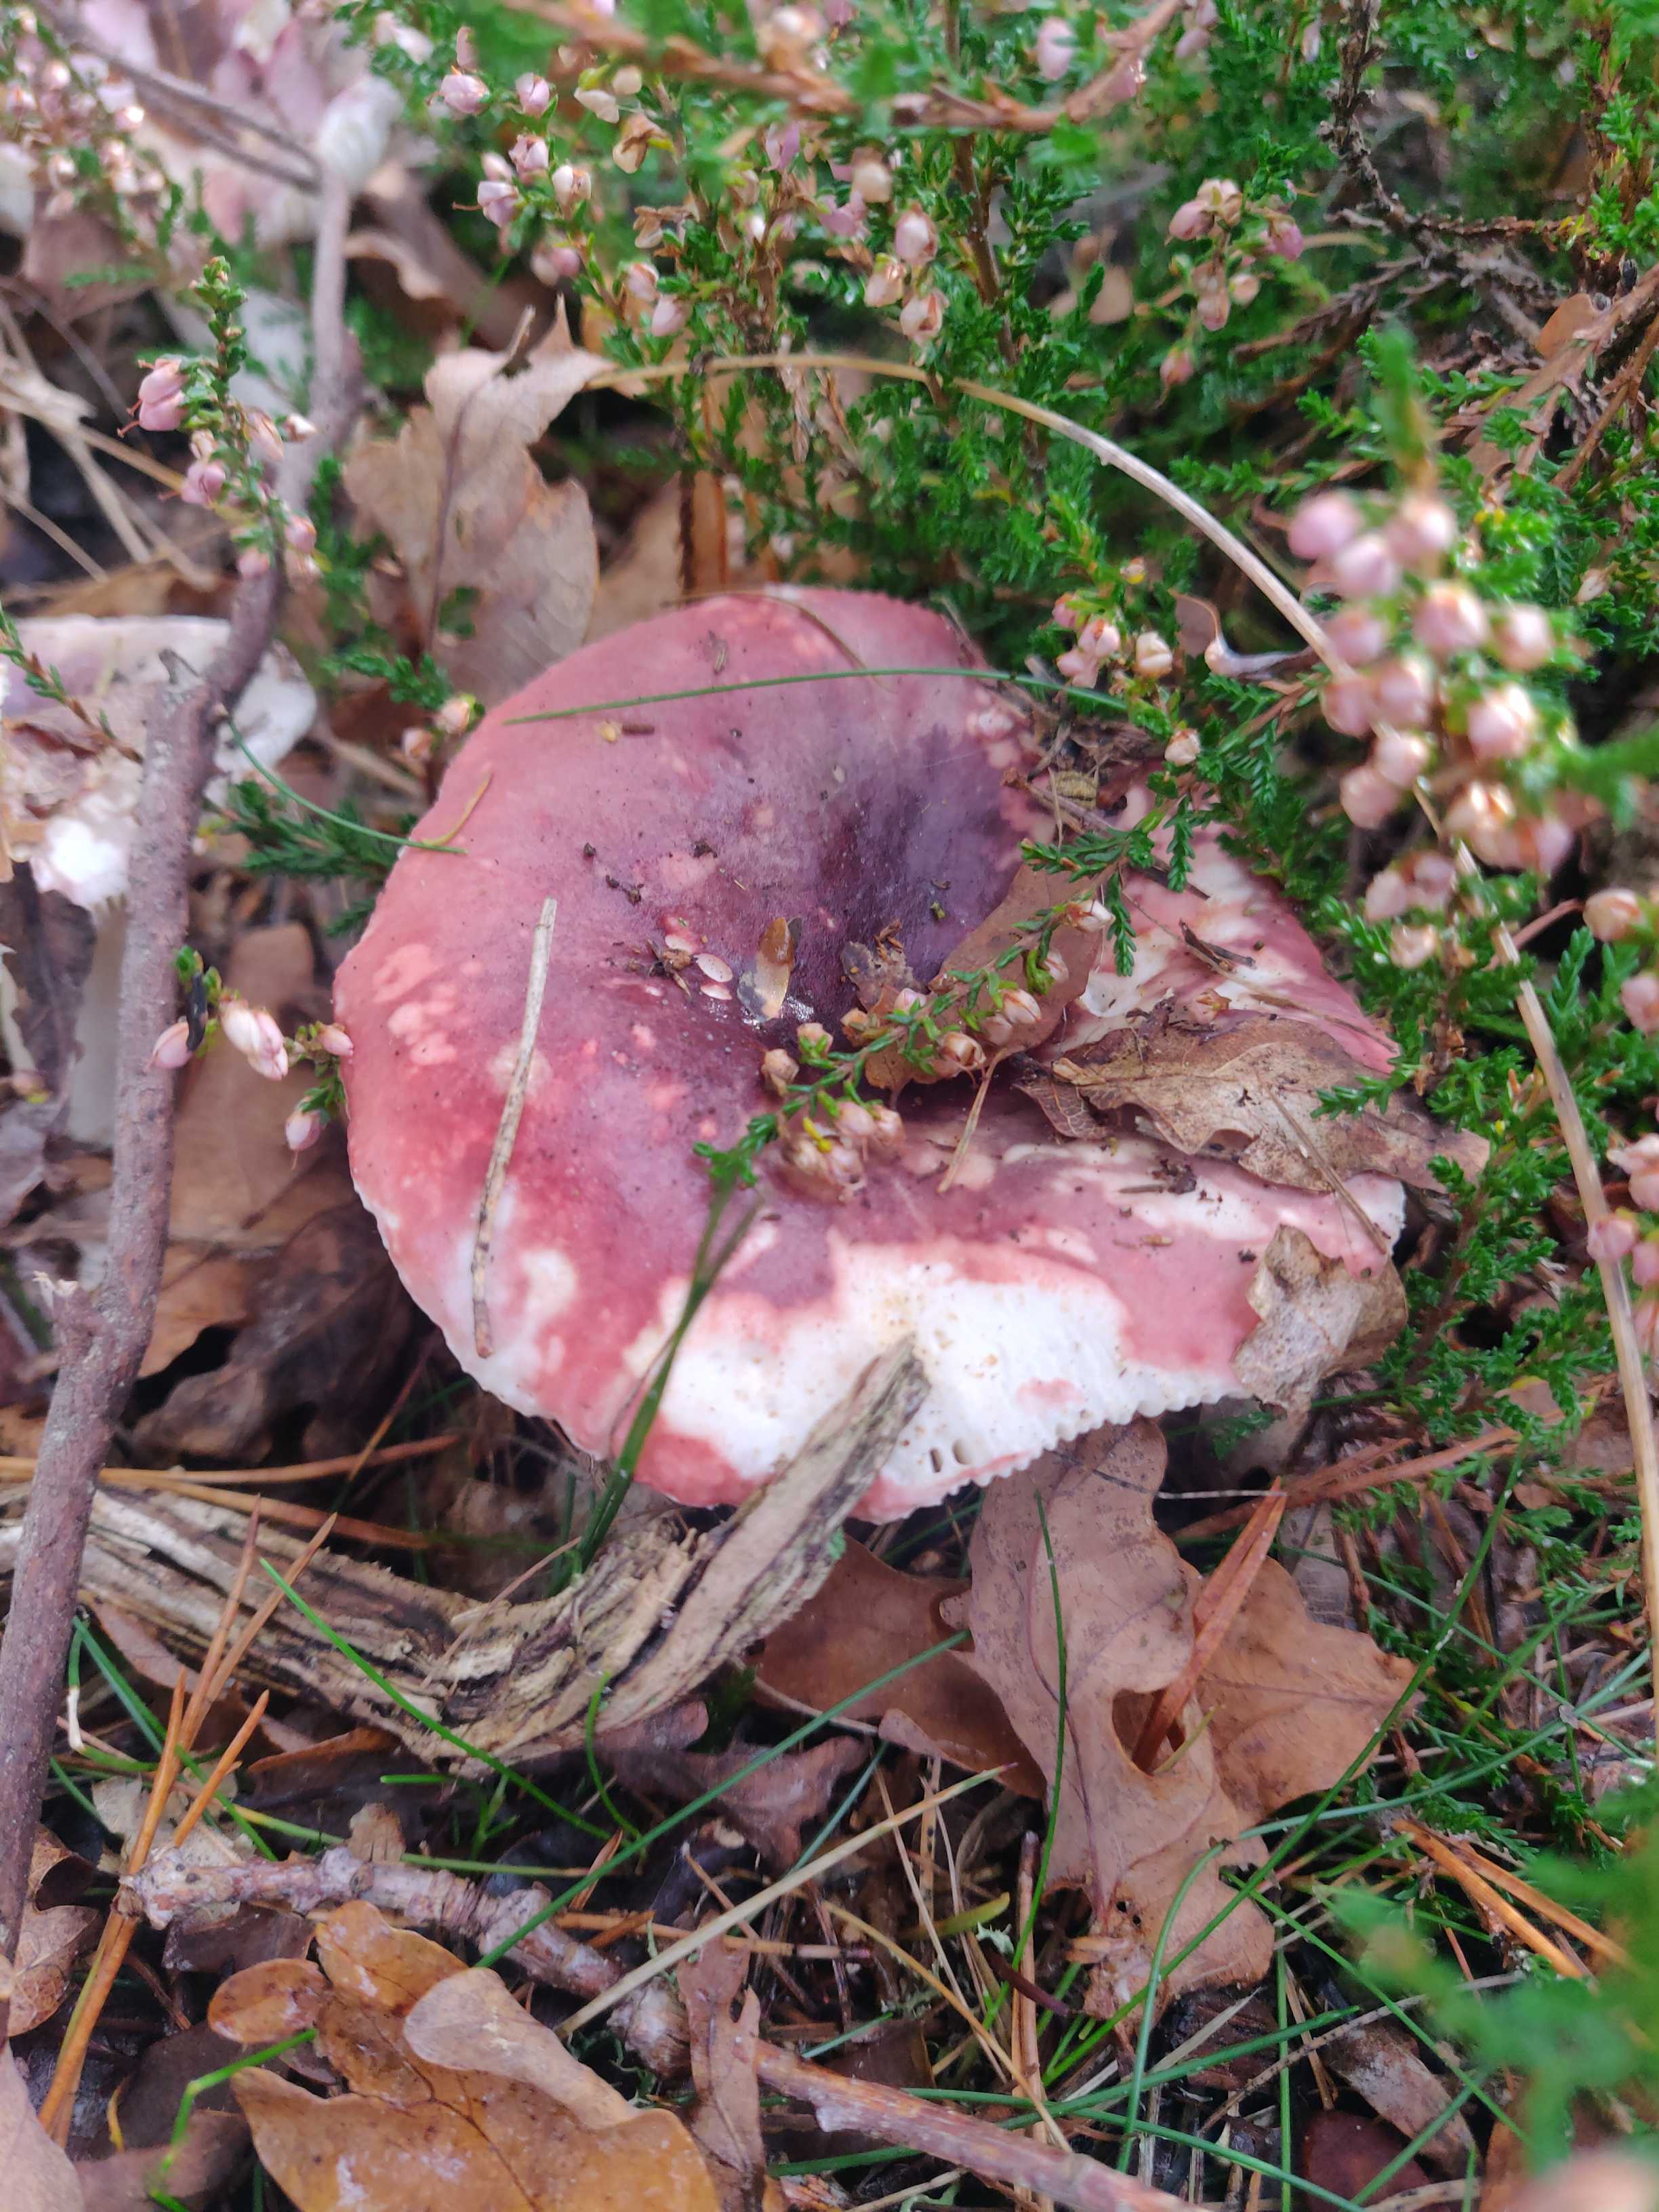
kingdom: Fungi
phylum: Basidiomycota
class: Agaricomycetes
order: Russulales
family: Russulaceae
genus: Russula
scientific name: Russula
